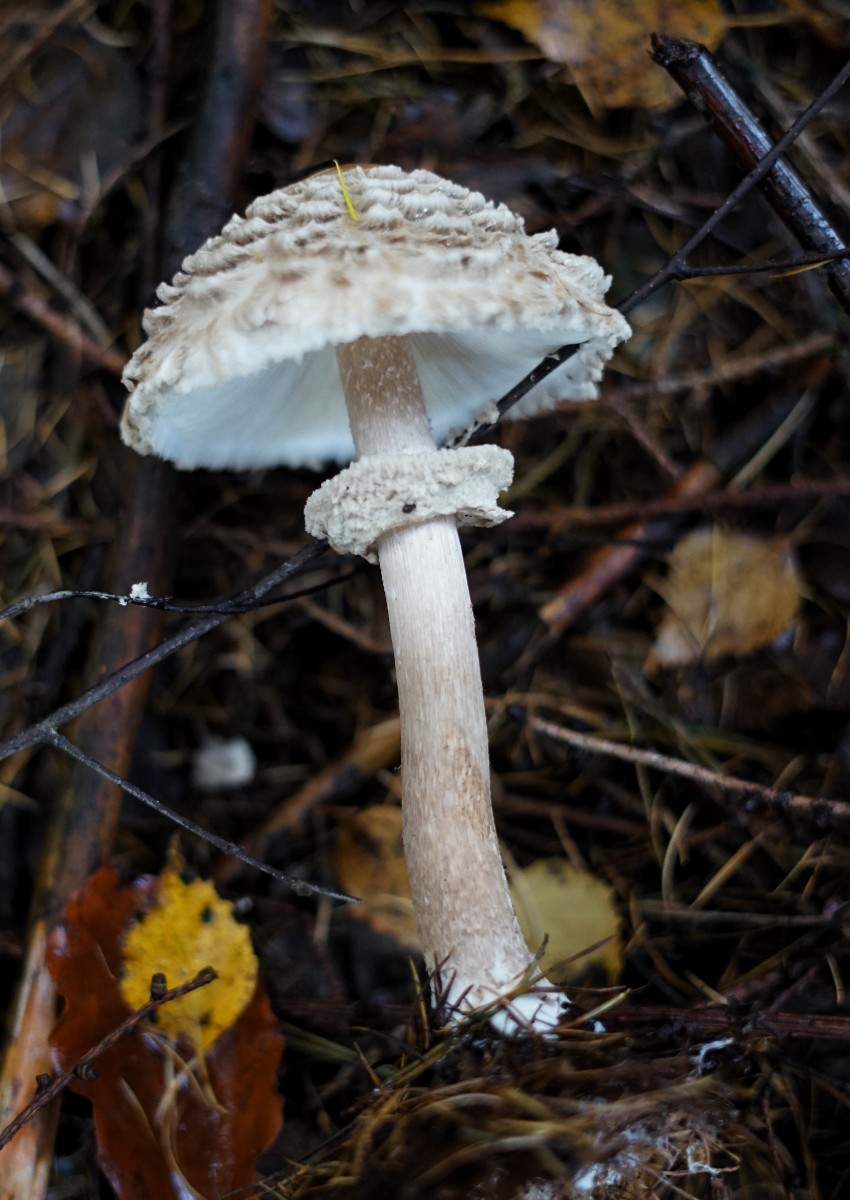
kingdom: Fungi
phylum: Basidiomycota
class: Agaricomycetes
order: Agaricales
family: Agaricaceae
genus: Chlorophyllum
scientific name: Chlorophyllum olivieri
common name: almindelig rabarberhat
